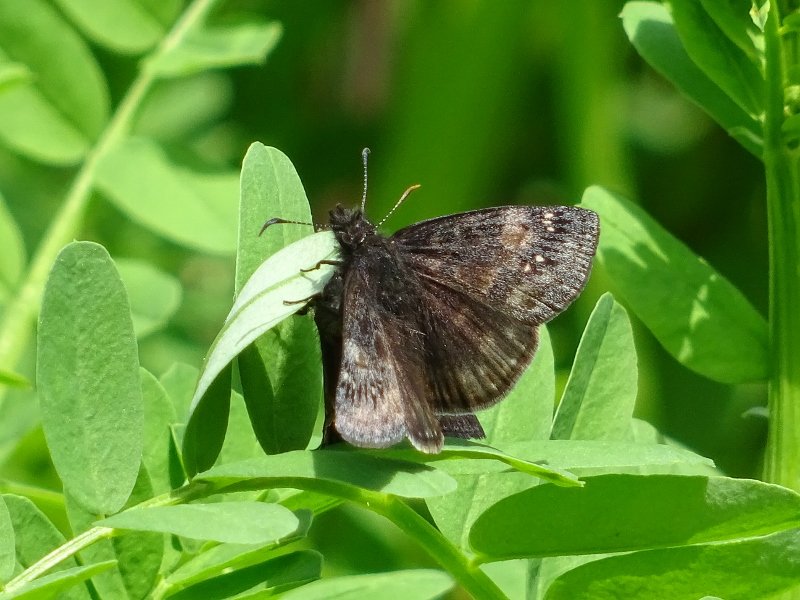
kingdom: Animalia
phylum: Arthropoda
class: Insecta
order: Lepidoptera
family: Hesperiidae
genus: Gesta
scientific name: Gesta
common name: Wild Indigo Duskywing
